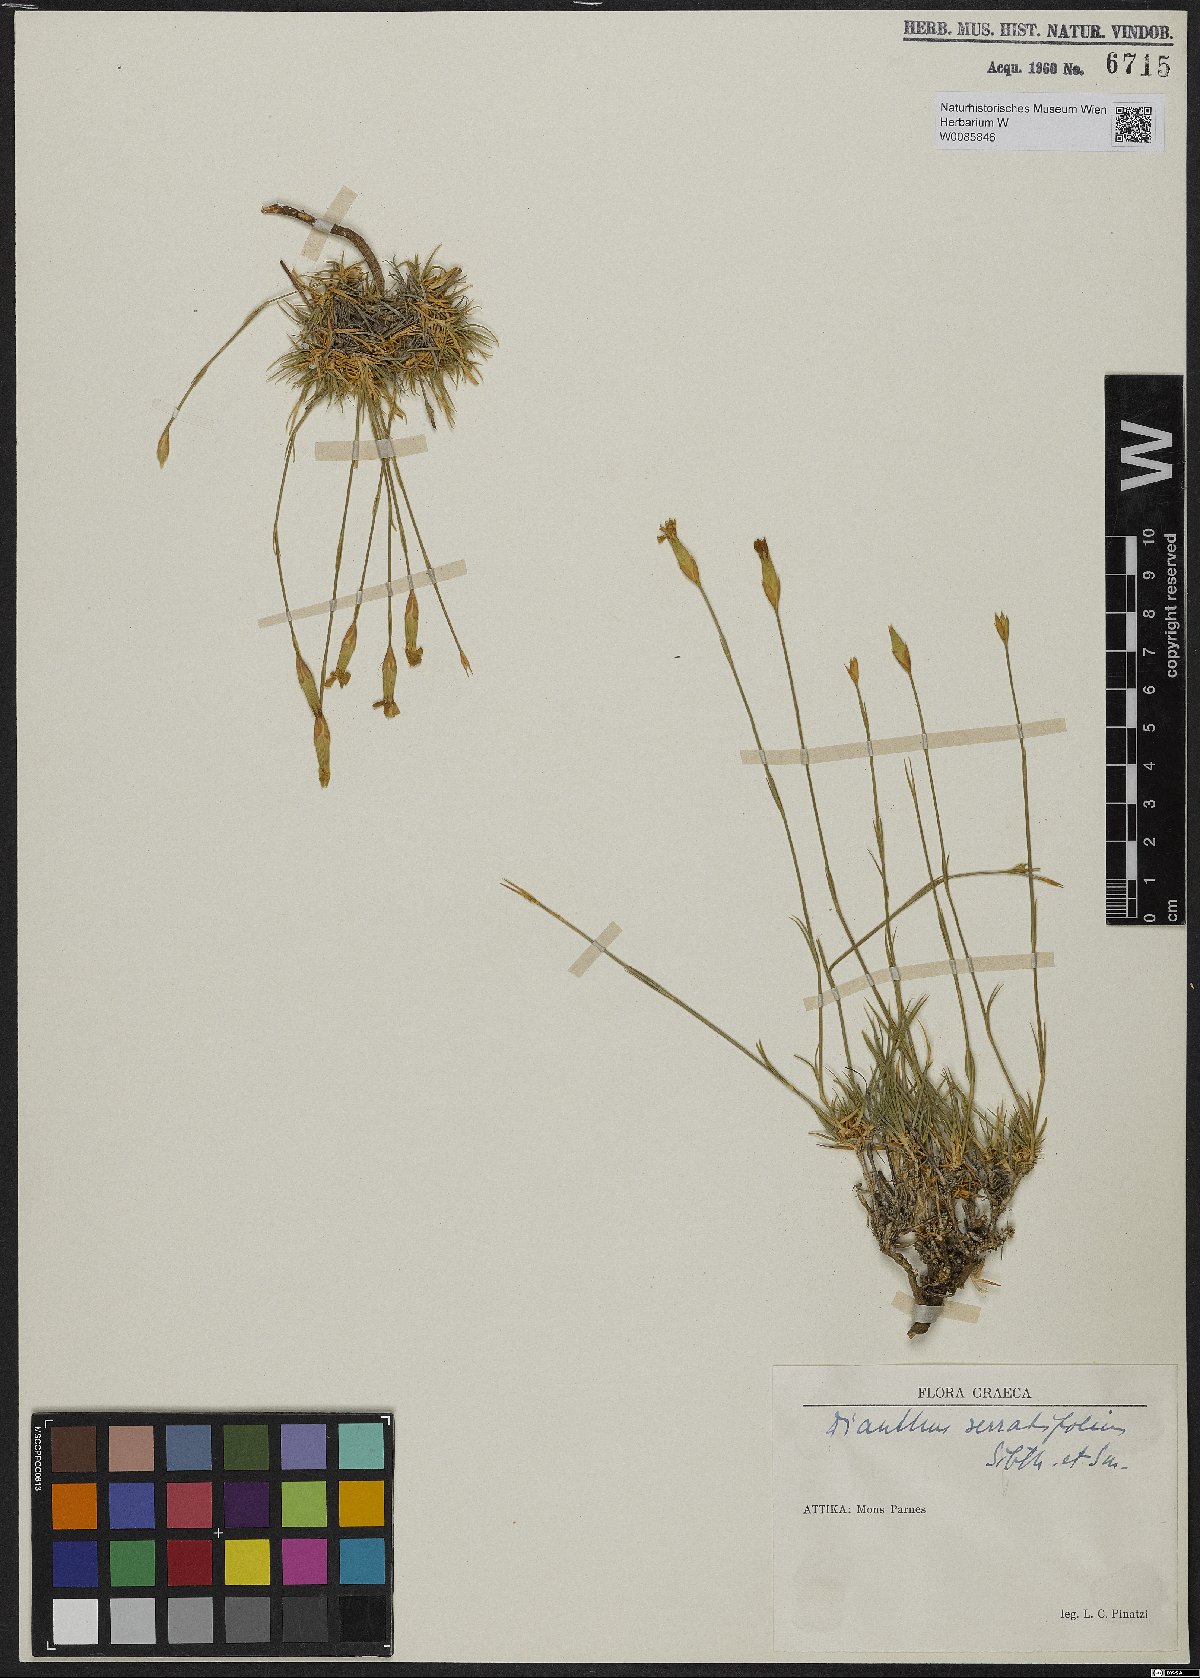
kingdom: Plantae
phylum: Tracheophyta
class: Magnoliopsida
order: Caryophyllales
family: Caryophyllaceae
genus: Dianthus
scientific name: Dianthus serratifolius
